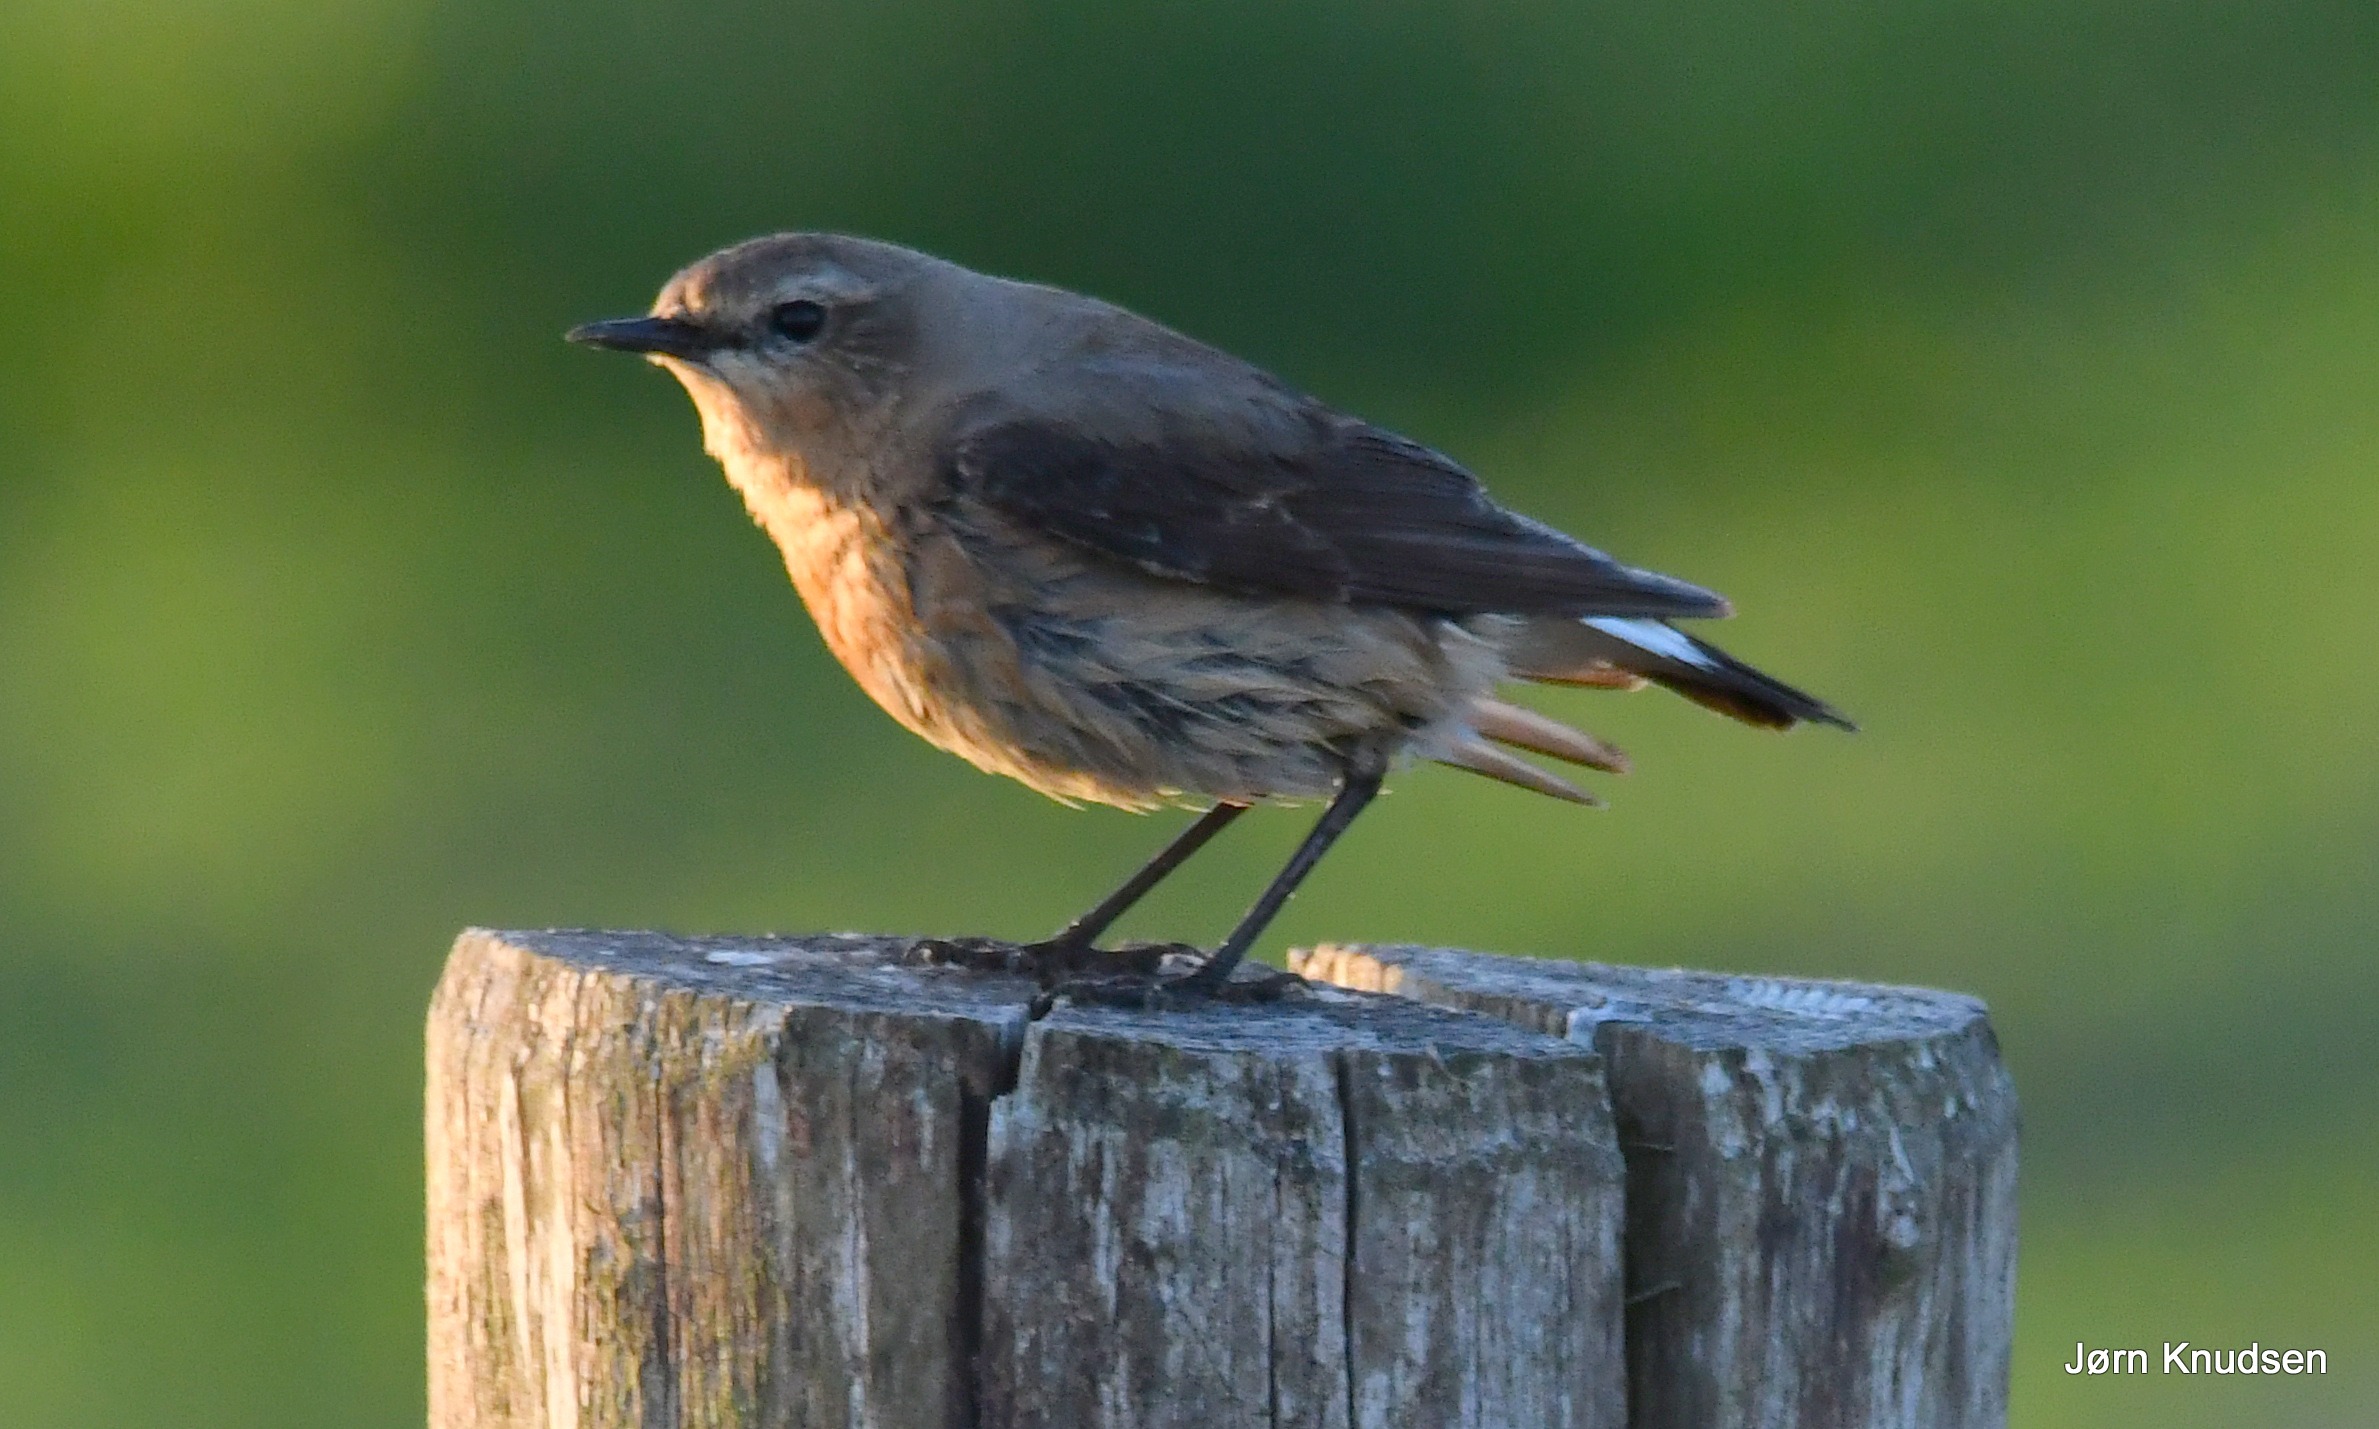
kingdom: Animalia
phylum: Chordata
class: Aves
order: Passeriformes
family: Muscicapidae
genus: Oenanthe
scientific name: Oenanthe oenanthe
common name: Stenpikker
